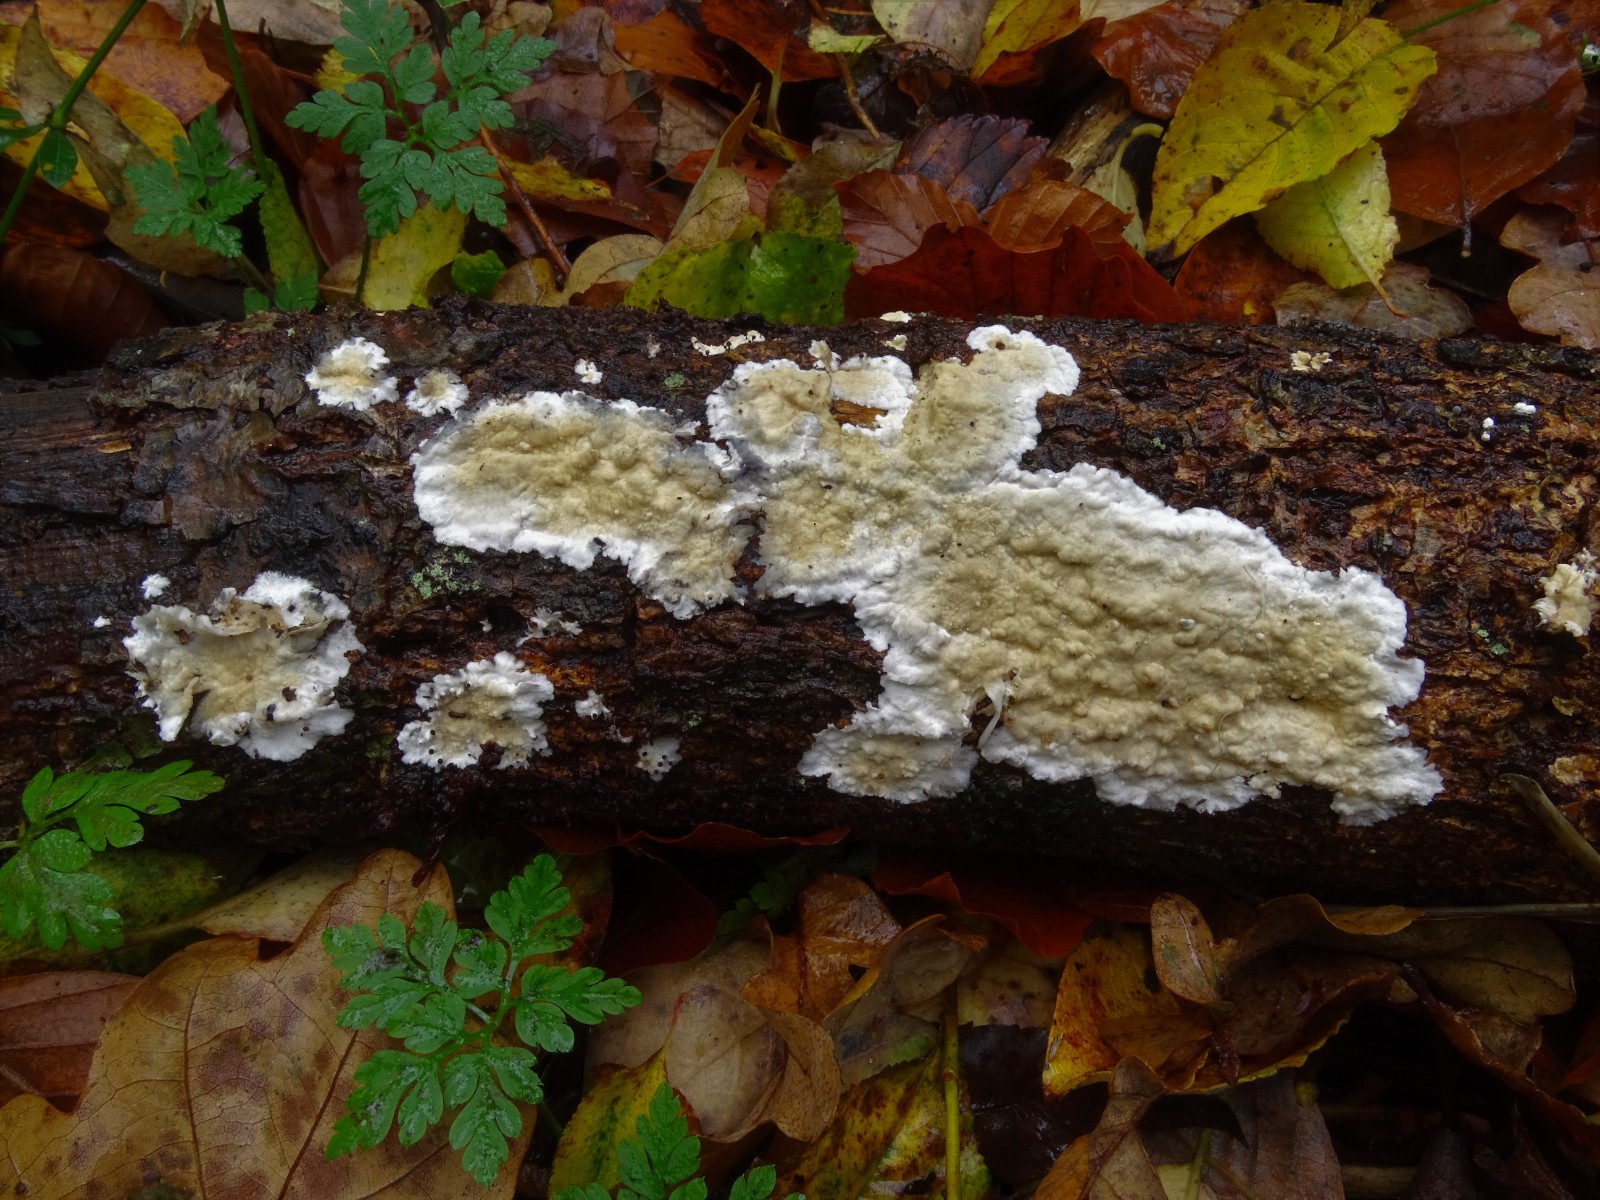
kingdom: Fungi
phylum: Basidiomycota
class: Agaricomycetes
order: Polyporales
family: Phanerochaetaceae
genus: Phanerochaete
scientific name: Phanerochaete sordida
